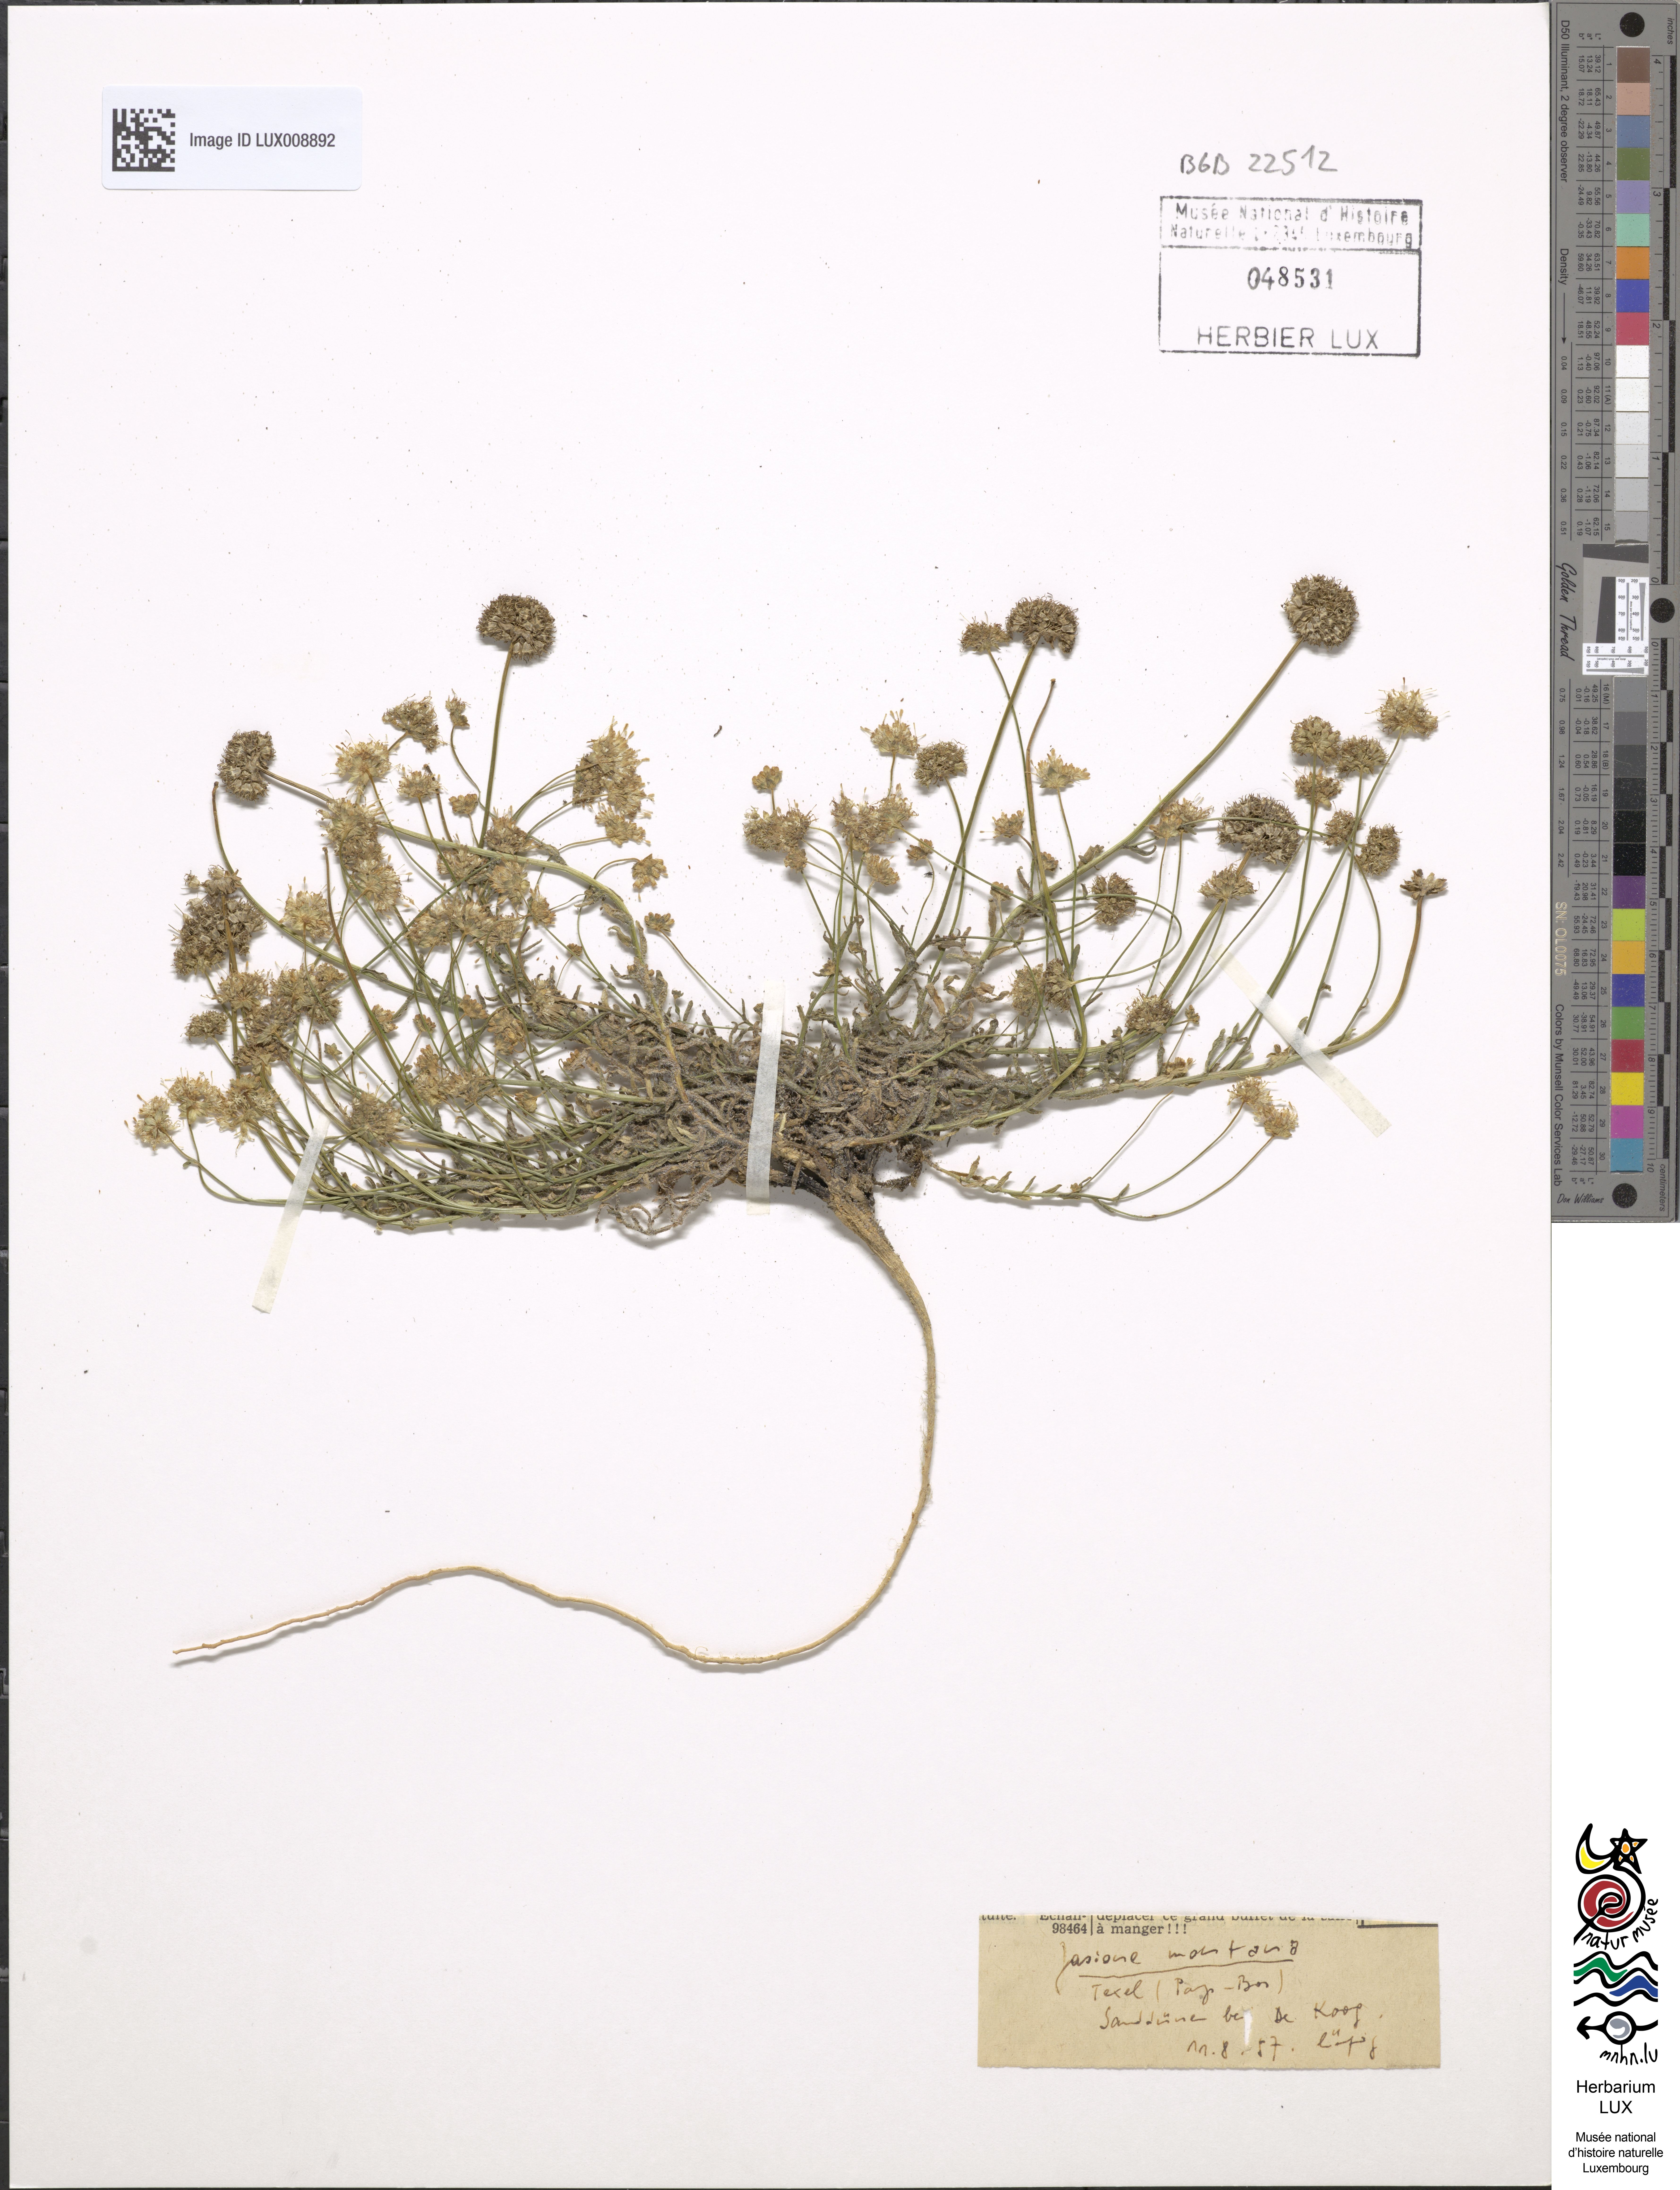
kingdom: Plantae
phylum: Tracheophyta
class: Magnoliopsida
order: Asterales
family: Campanulaceae
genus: Jasione
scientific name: Jasione montana
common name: Sheep's-bit
